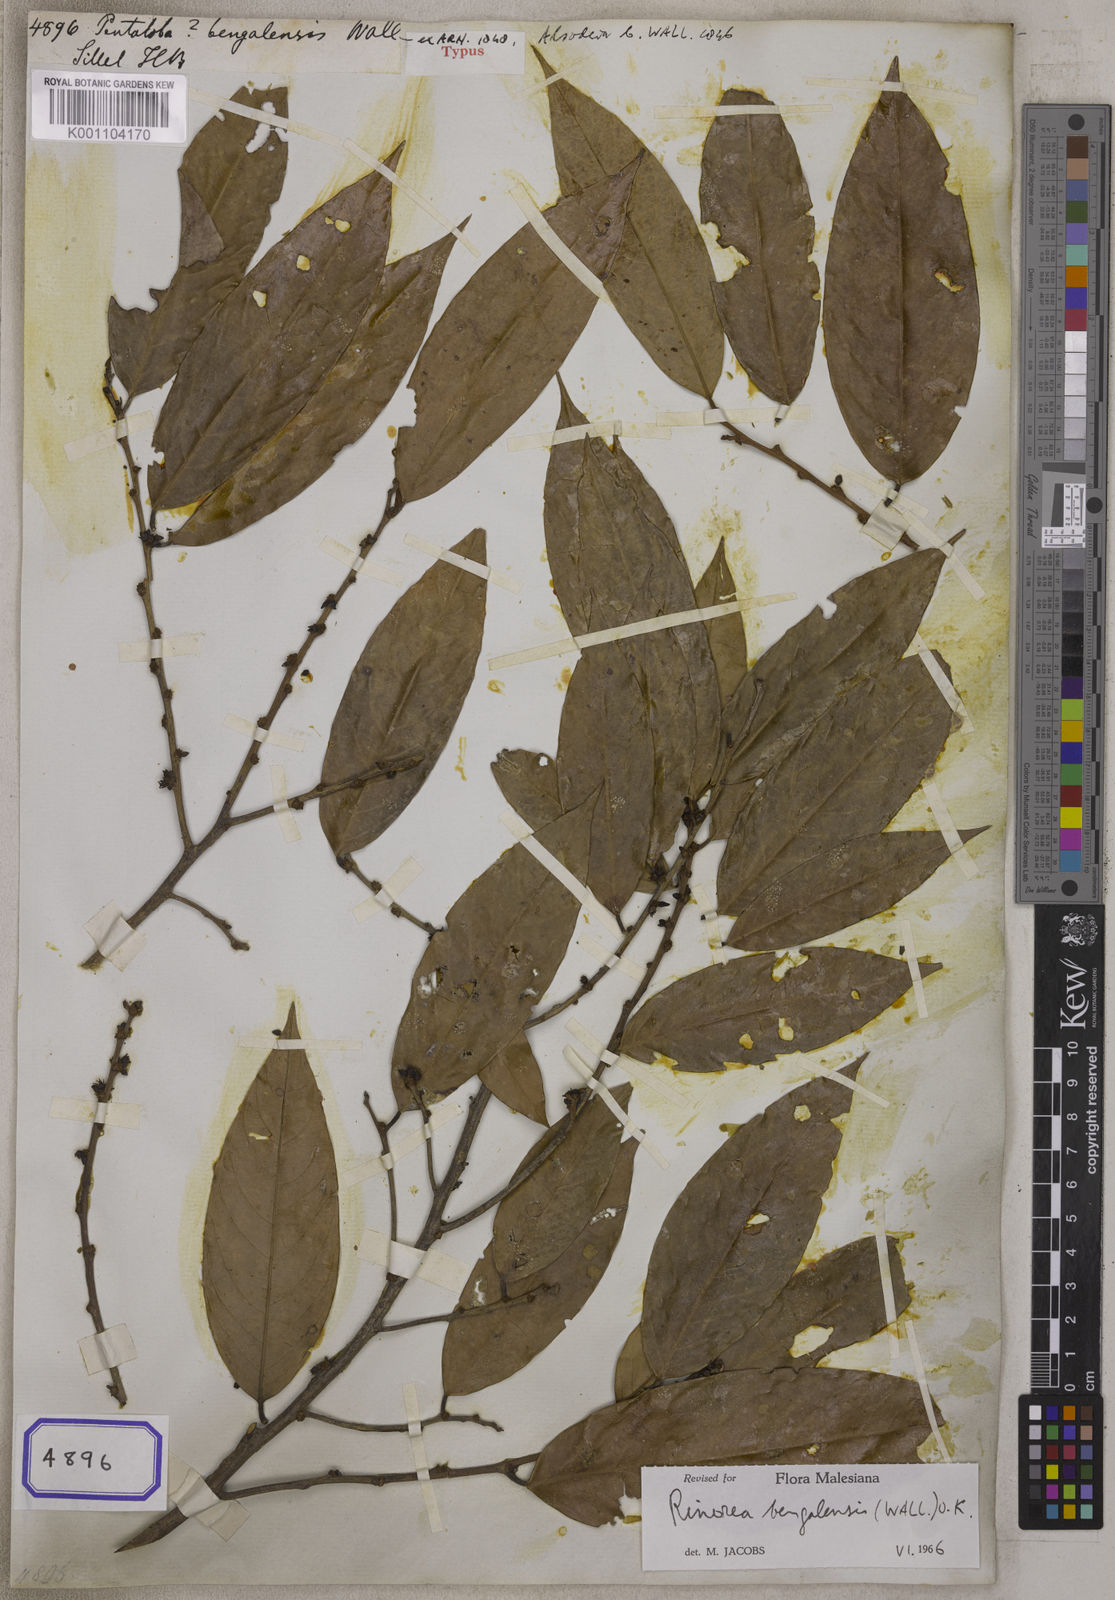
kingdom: Plantae
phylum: Tracheophyta
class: Magnoliopsida
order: Malpighiales
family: Violaceae
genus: Rinorea
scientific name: Rinorea
